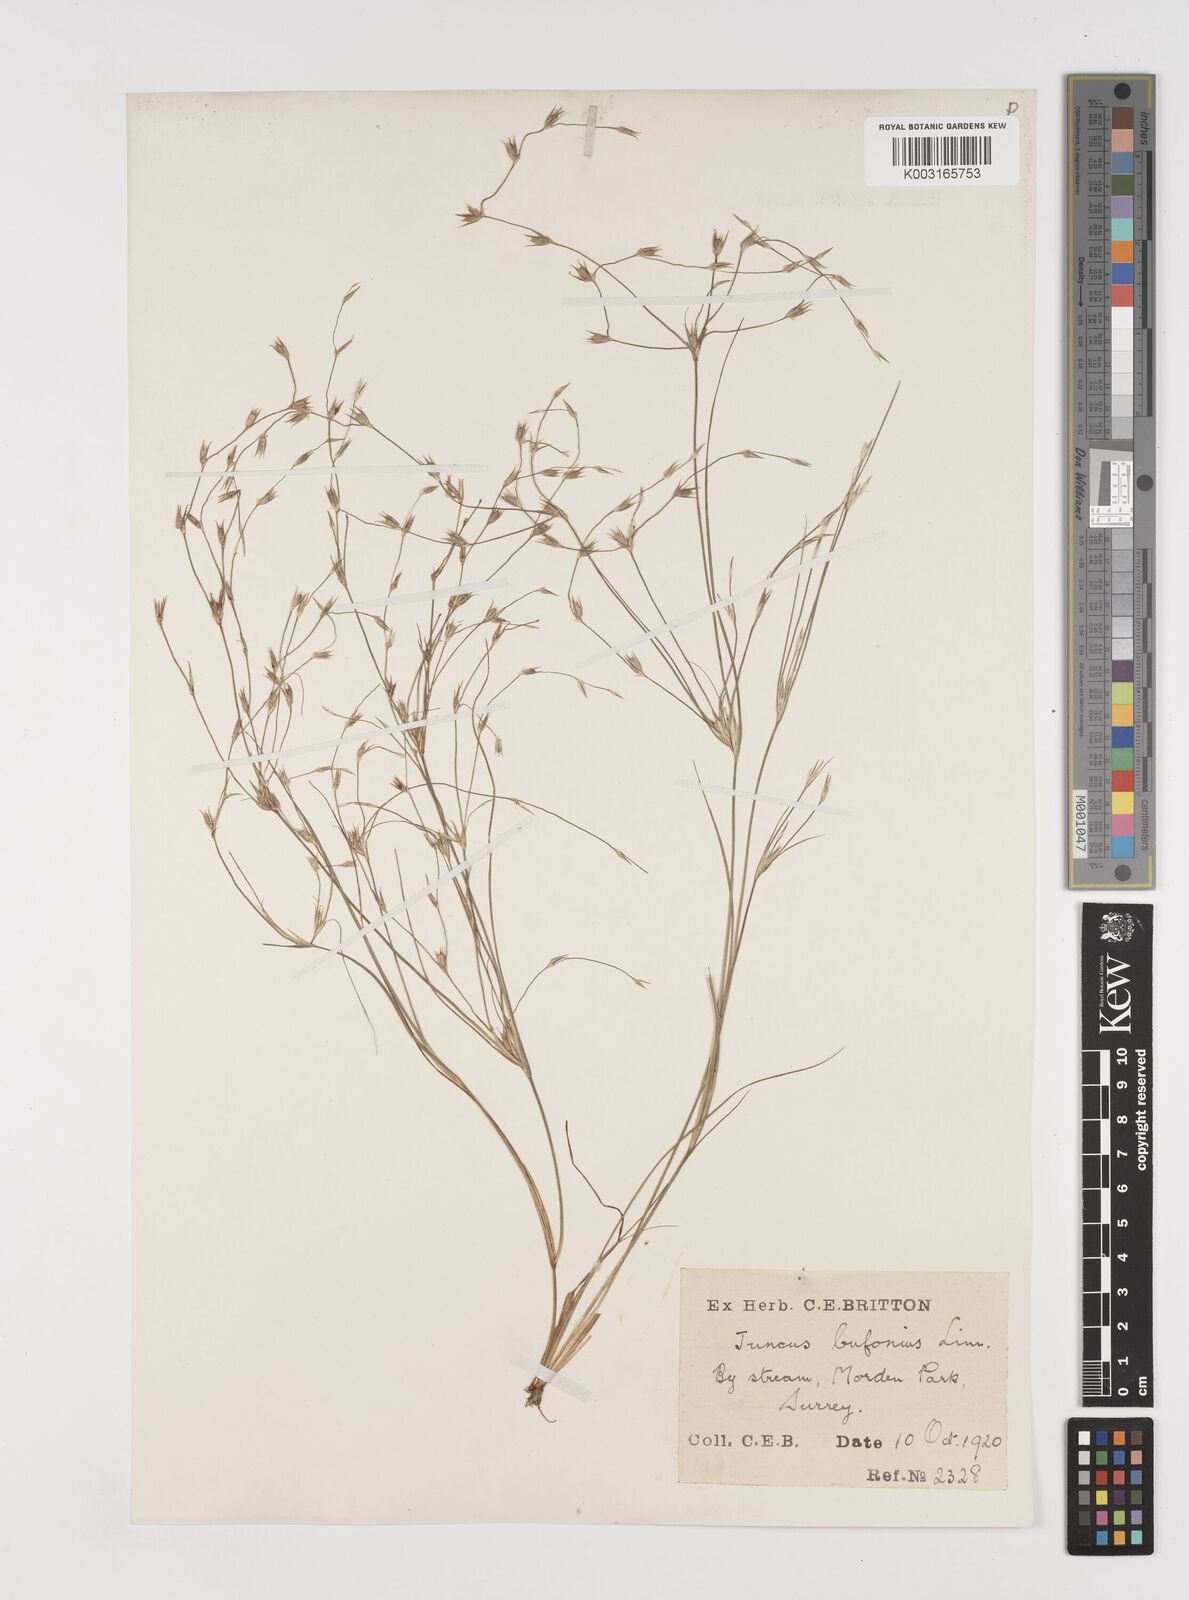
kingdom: Plantae
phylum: Tracheophyta
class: Liliopsida
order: Poales
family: Juncaceae
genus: Juncus
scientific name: Juncus bufonius
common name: Toad rush
